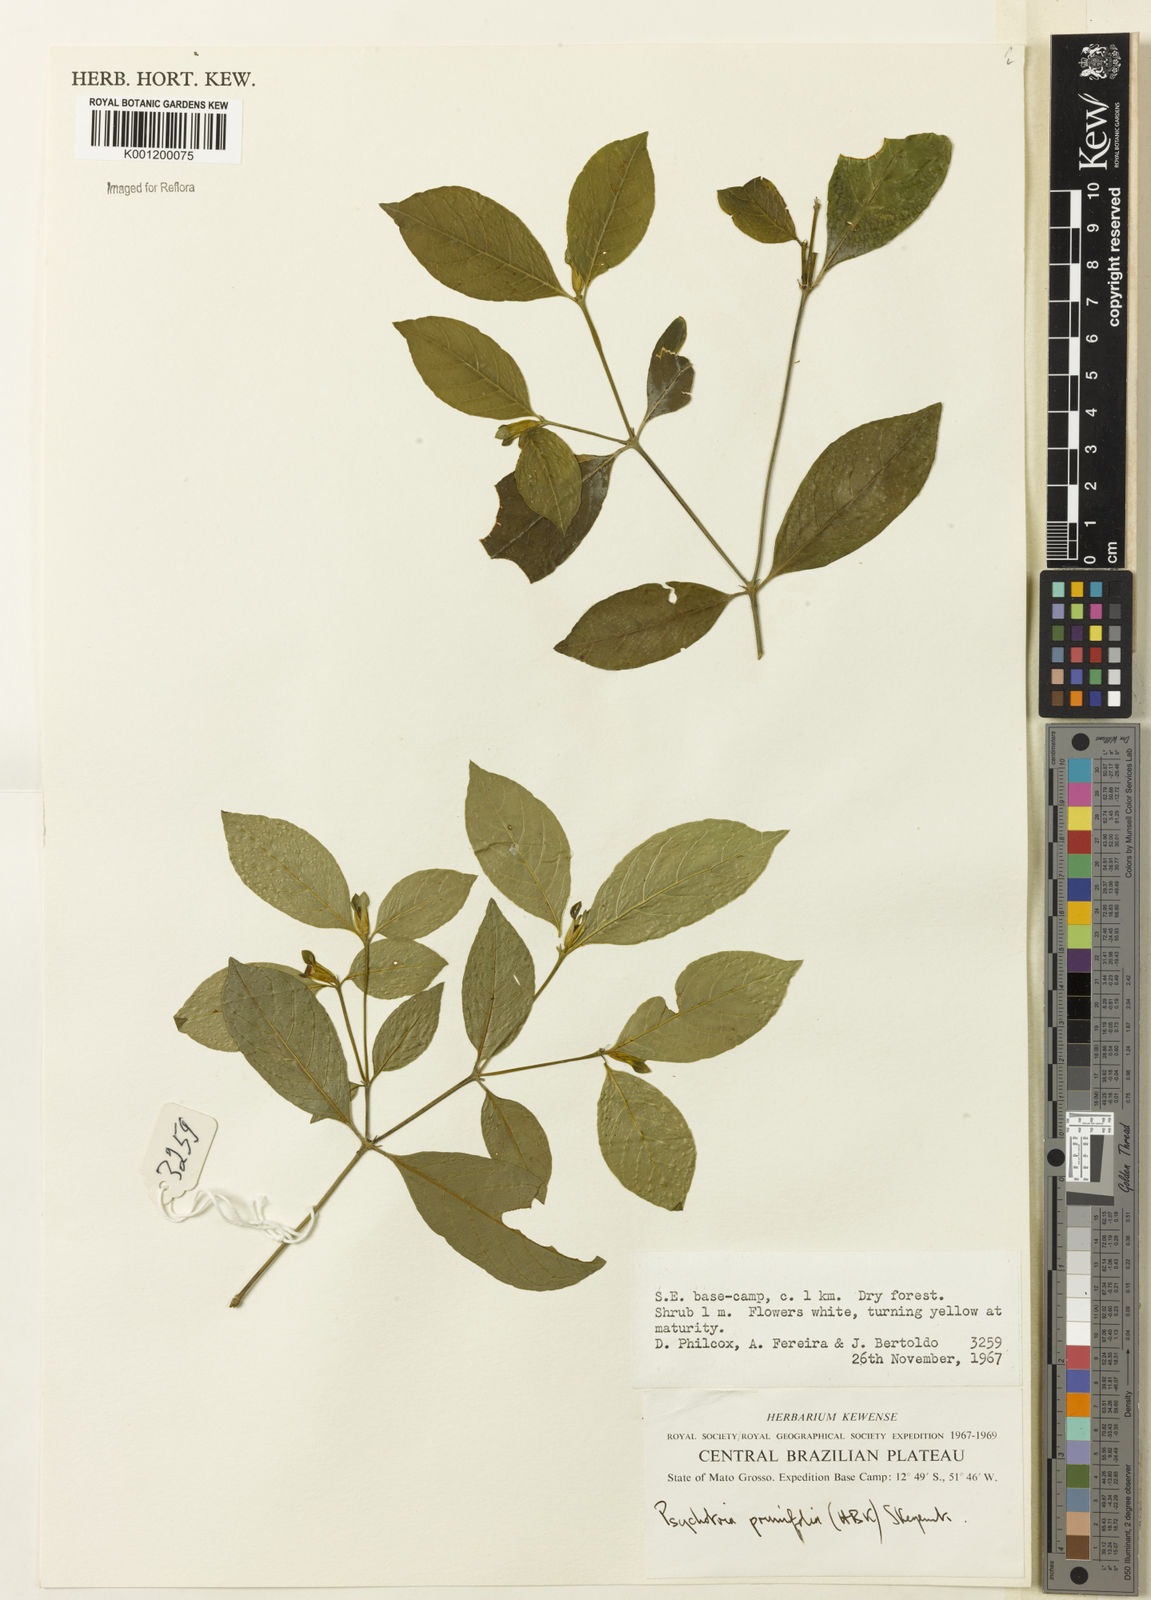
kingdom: Plantae
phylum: Tracheophyta
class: Magnoliopsida
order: Gentianales
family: Rubiaceae
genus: Palicourea
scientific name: Palicourea prunifolia
